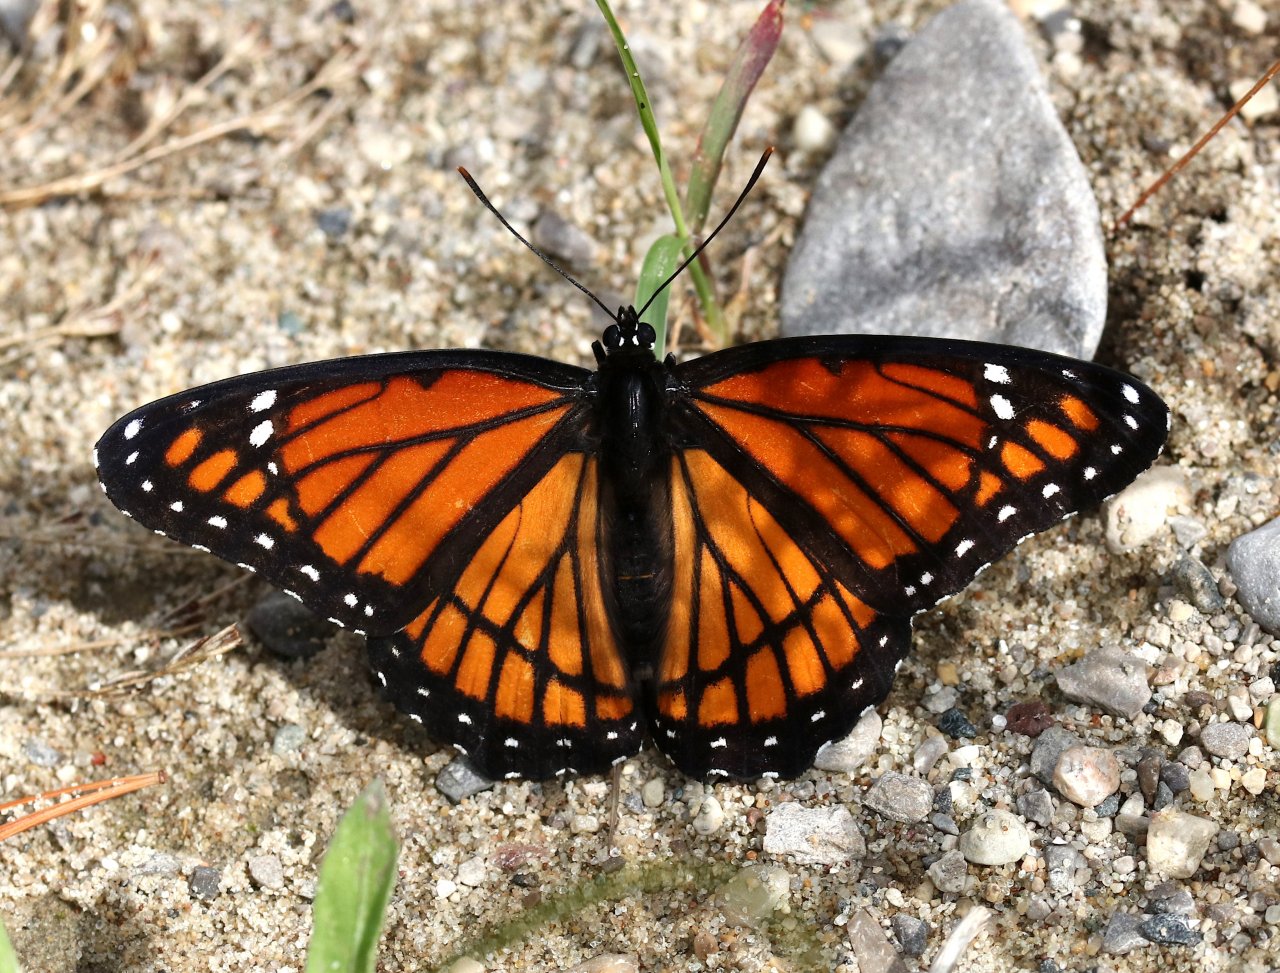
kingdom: Animalia
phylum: Arthropoda
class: Insecta
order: Lepidoptera
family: Nymphalidae
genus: Limenitis
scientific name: Limenitis archippus
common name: Viceroy
